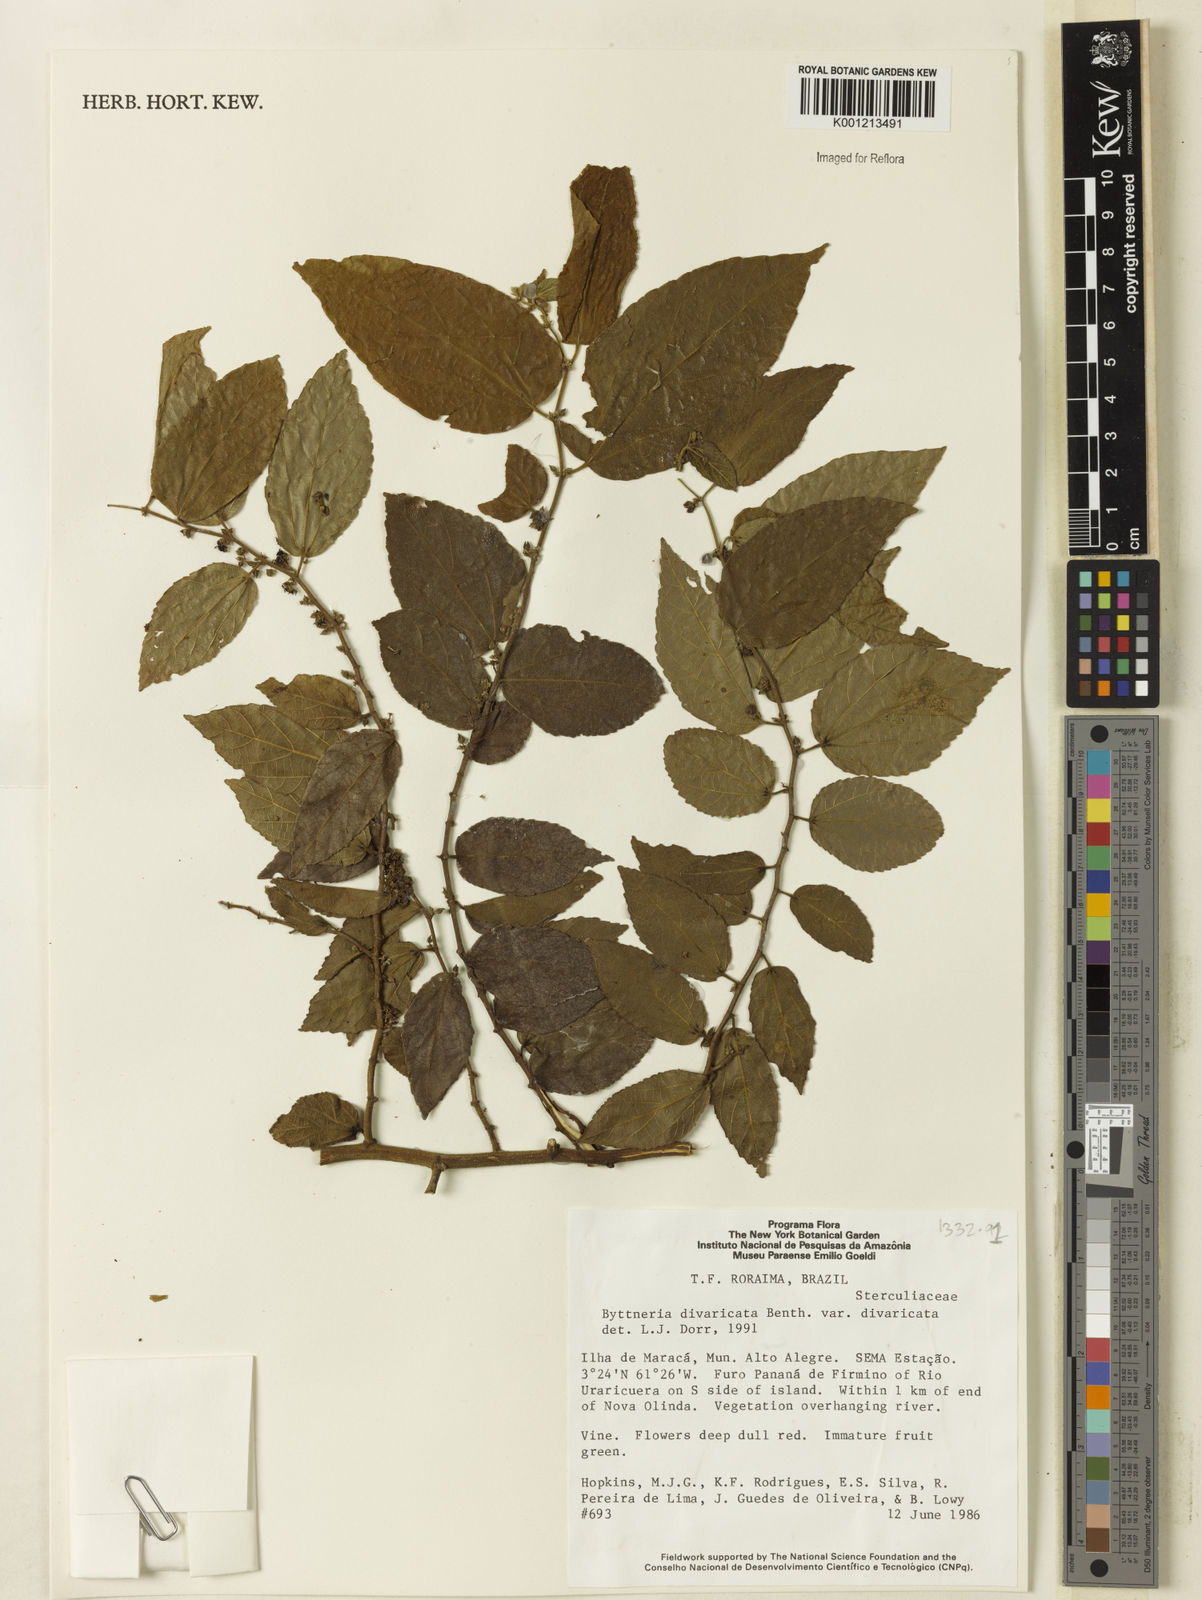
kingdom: Plantae
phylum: Tracheophyta
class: Magnoliopsida
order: Malvales
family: Malvaceae
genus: Byttneria
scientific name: Byttneria divaricata
